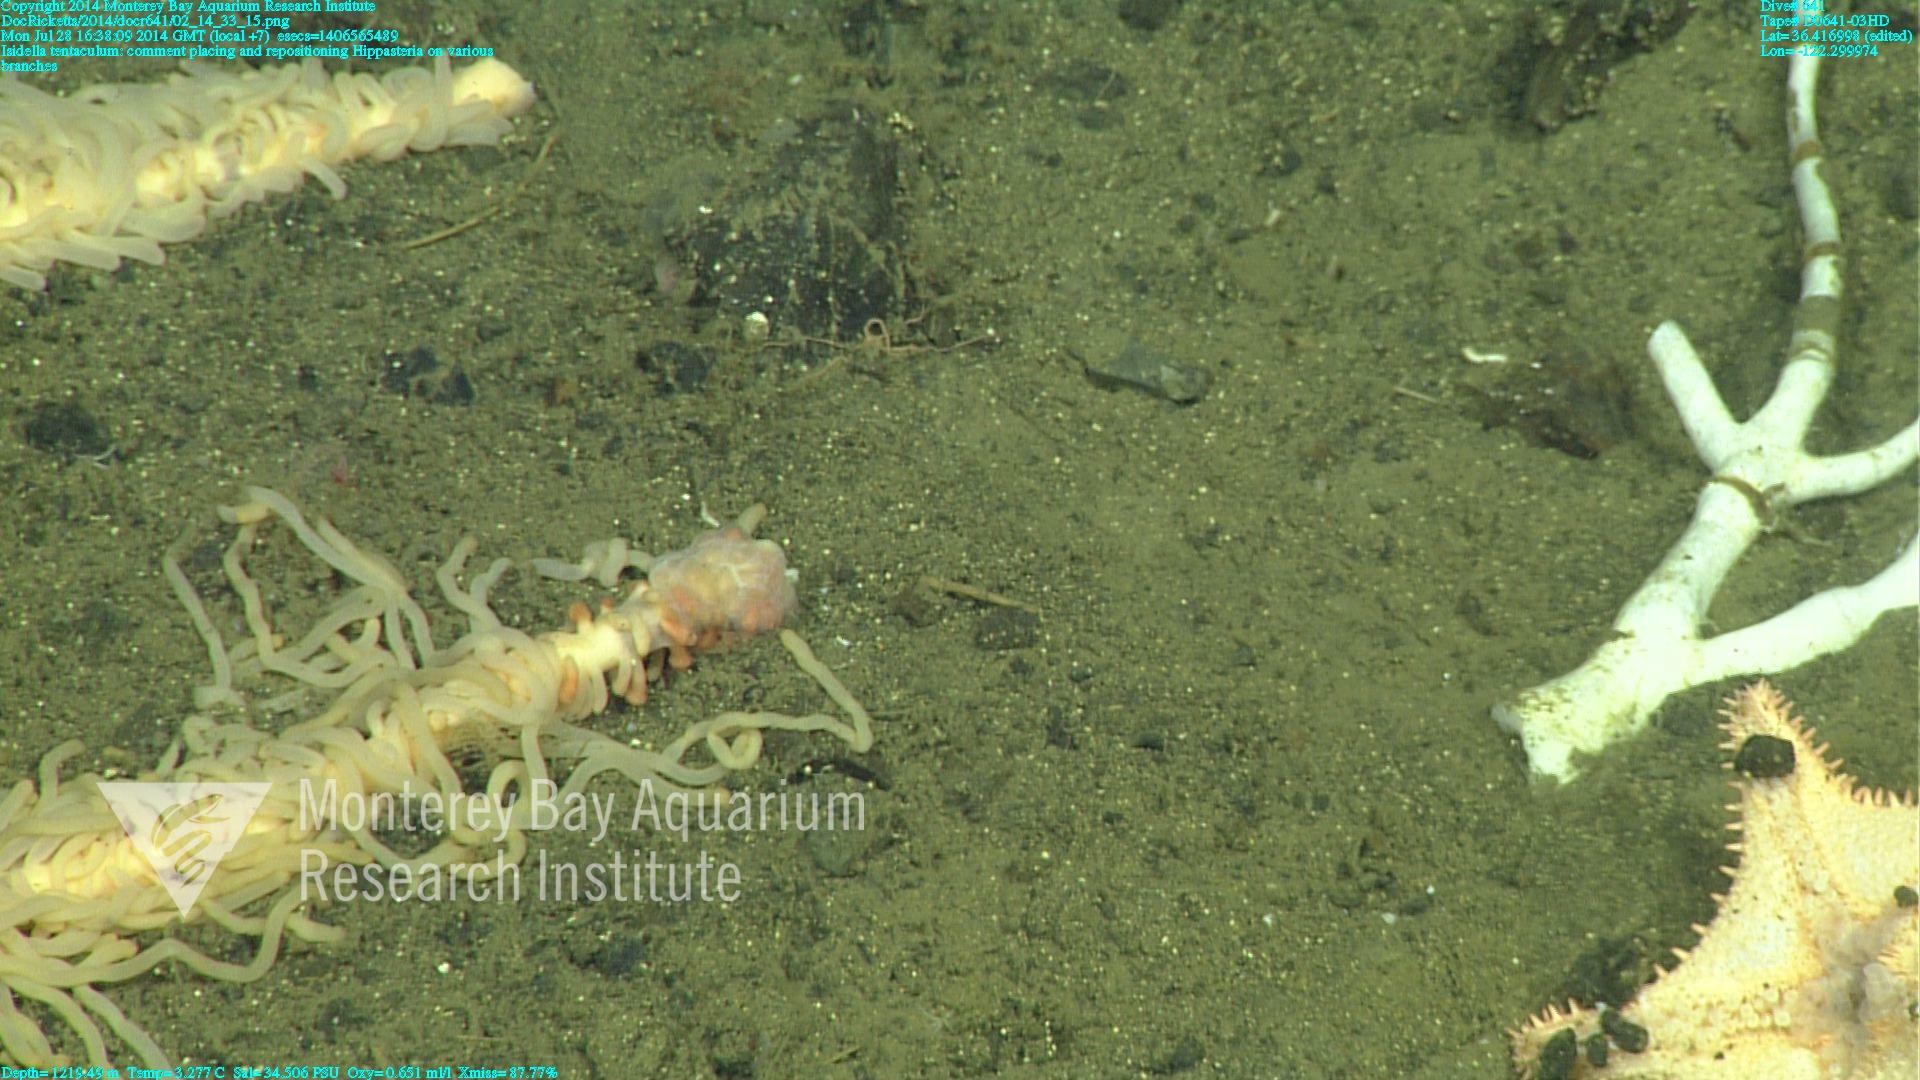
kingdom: Animalia
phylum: Cnidaria
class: Anthozoa
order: Scleralcyonacea
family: Keratoisididae
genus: Isidella
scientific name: Isidella tentaculum
